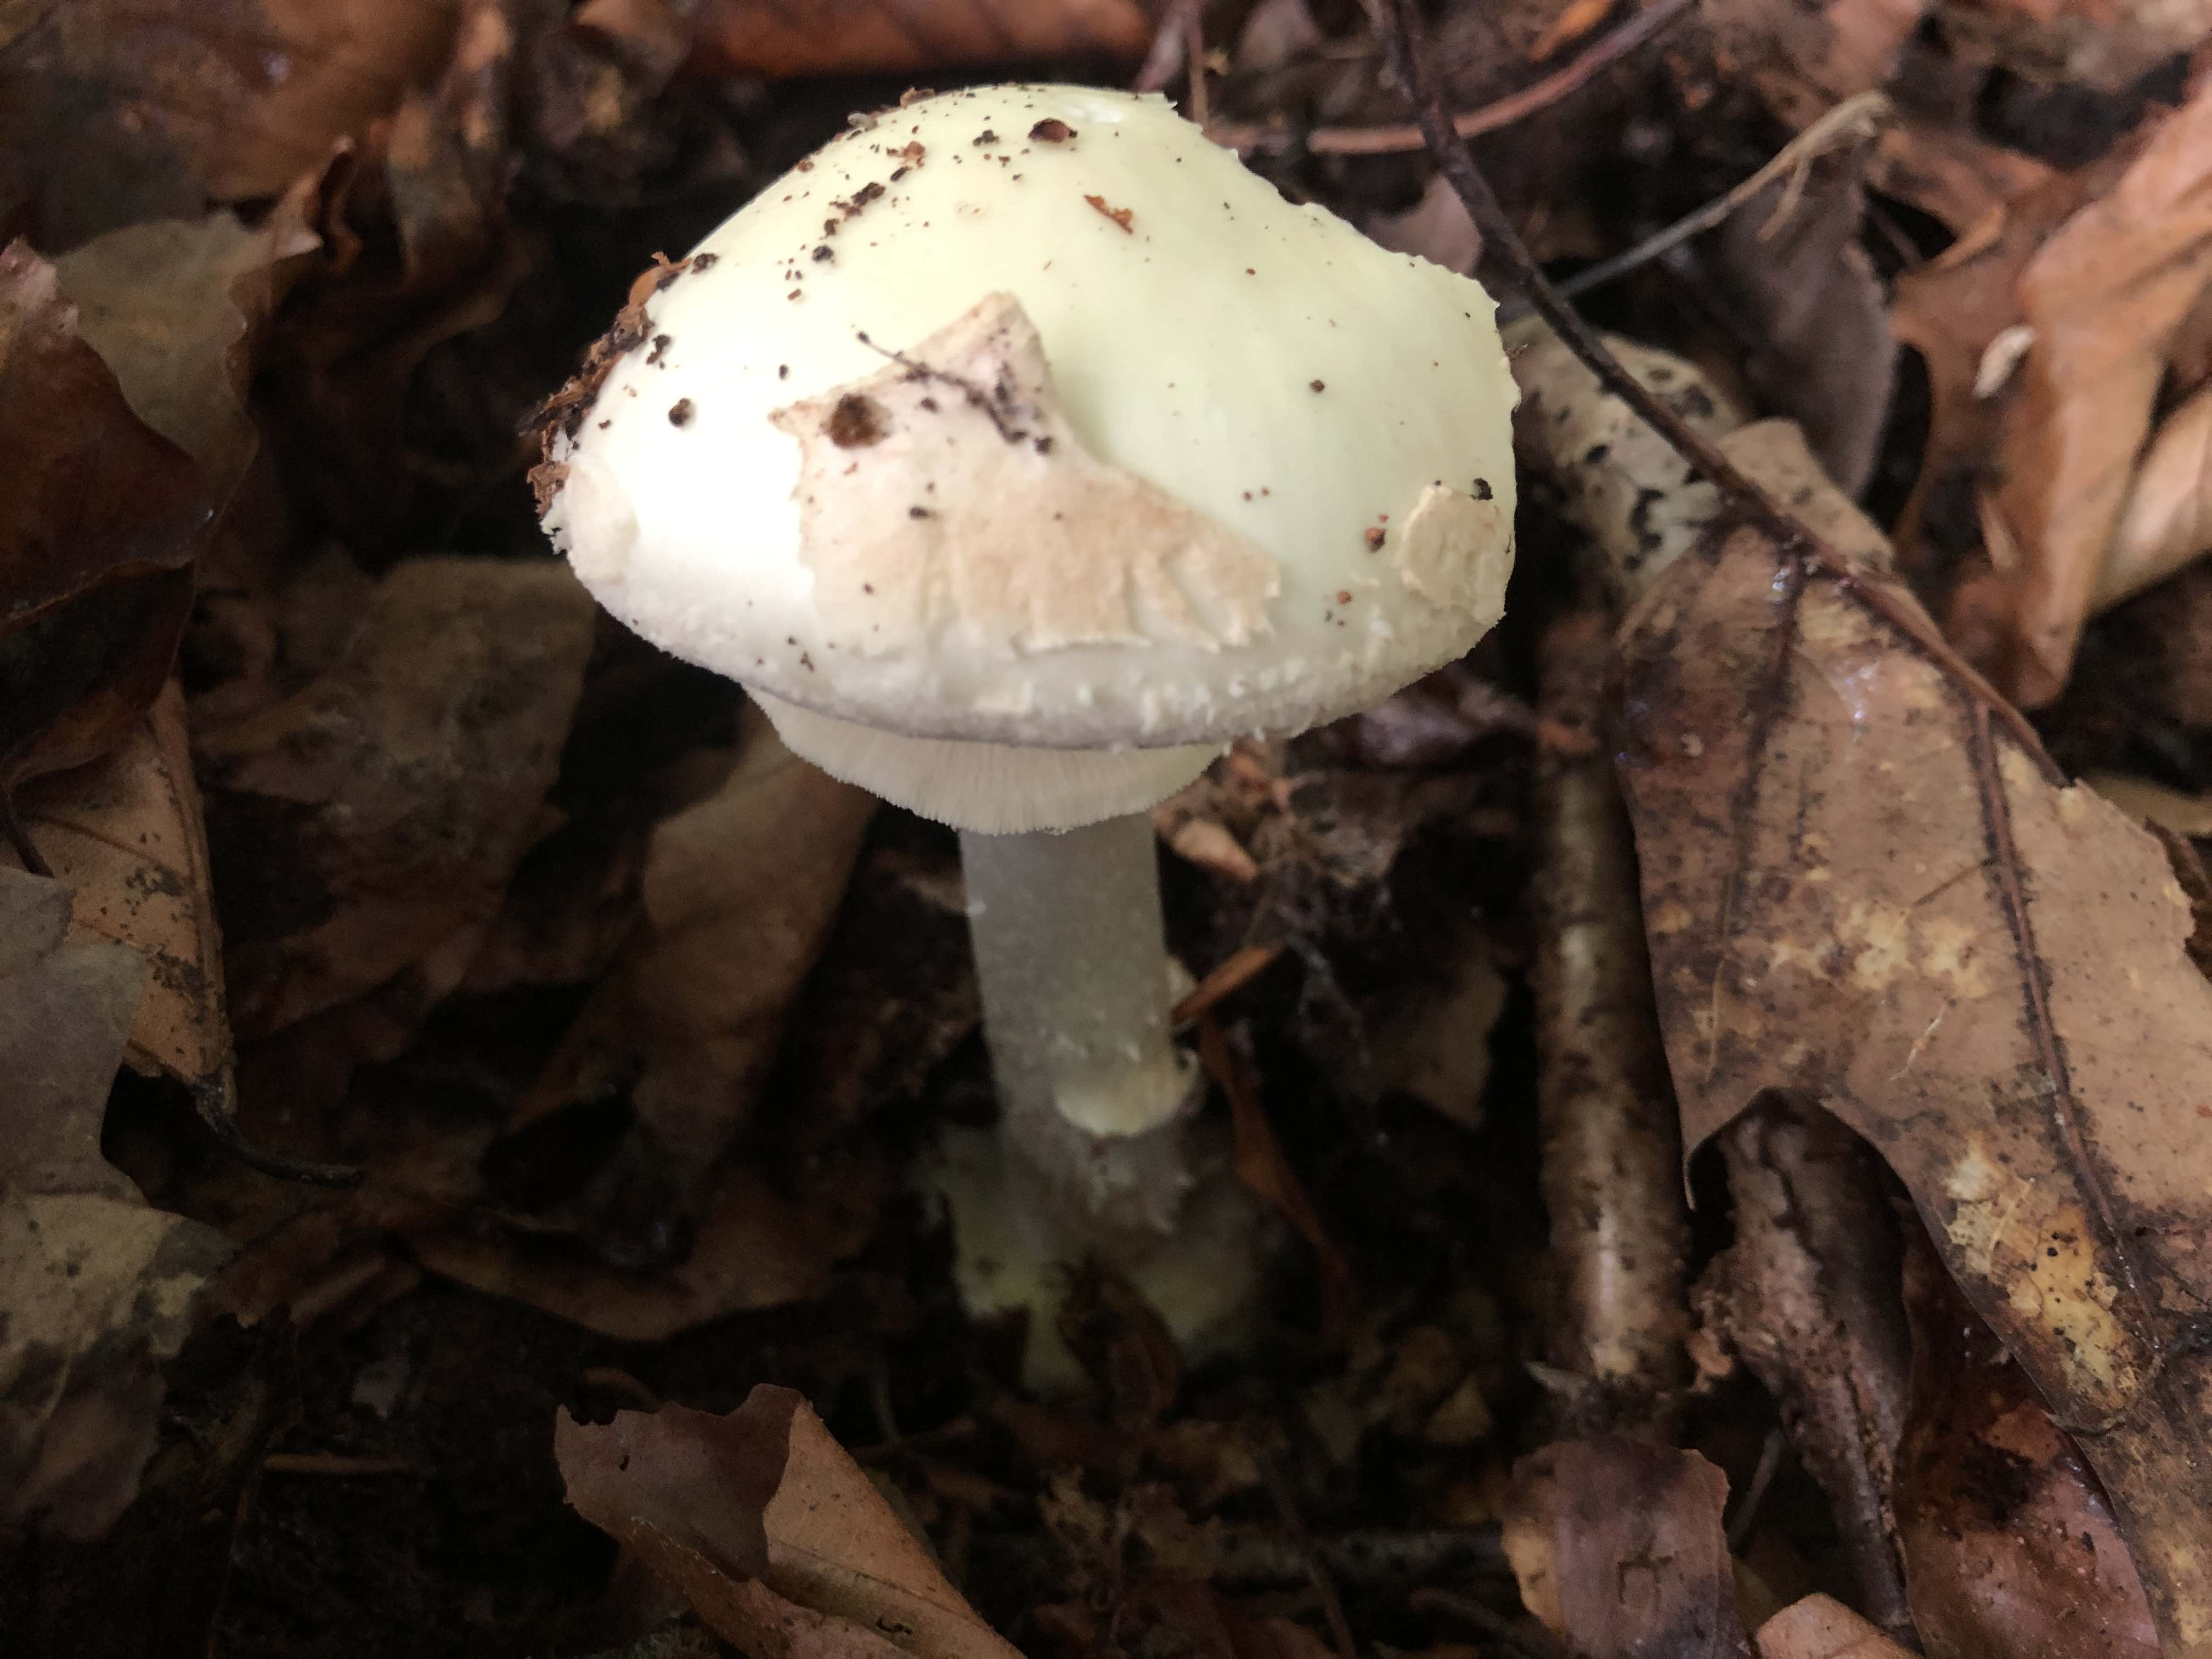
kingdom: Fungi
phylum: Basidiomycota
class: Agaricomycetes
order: Agaricales
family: Amanitaceae
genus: Amanita
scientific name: Amanita citrina
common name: kugleknoldet fluesvamp
